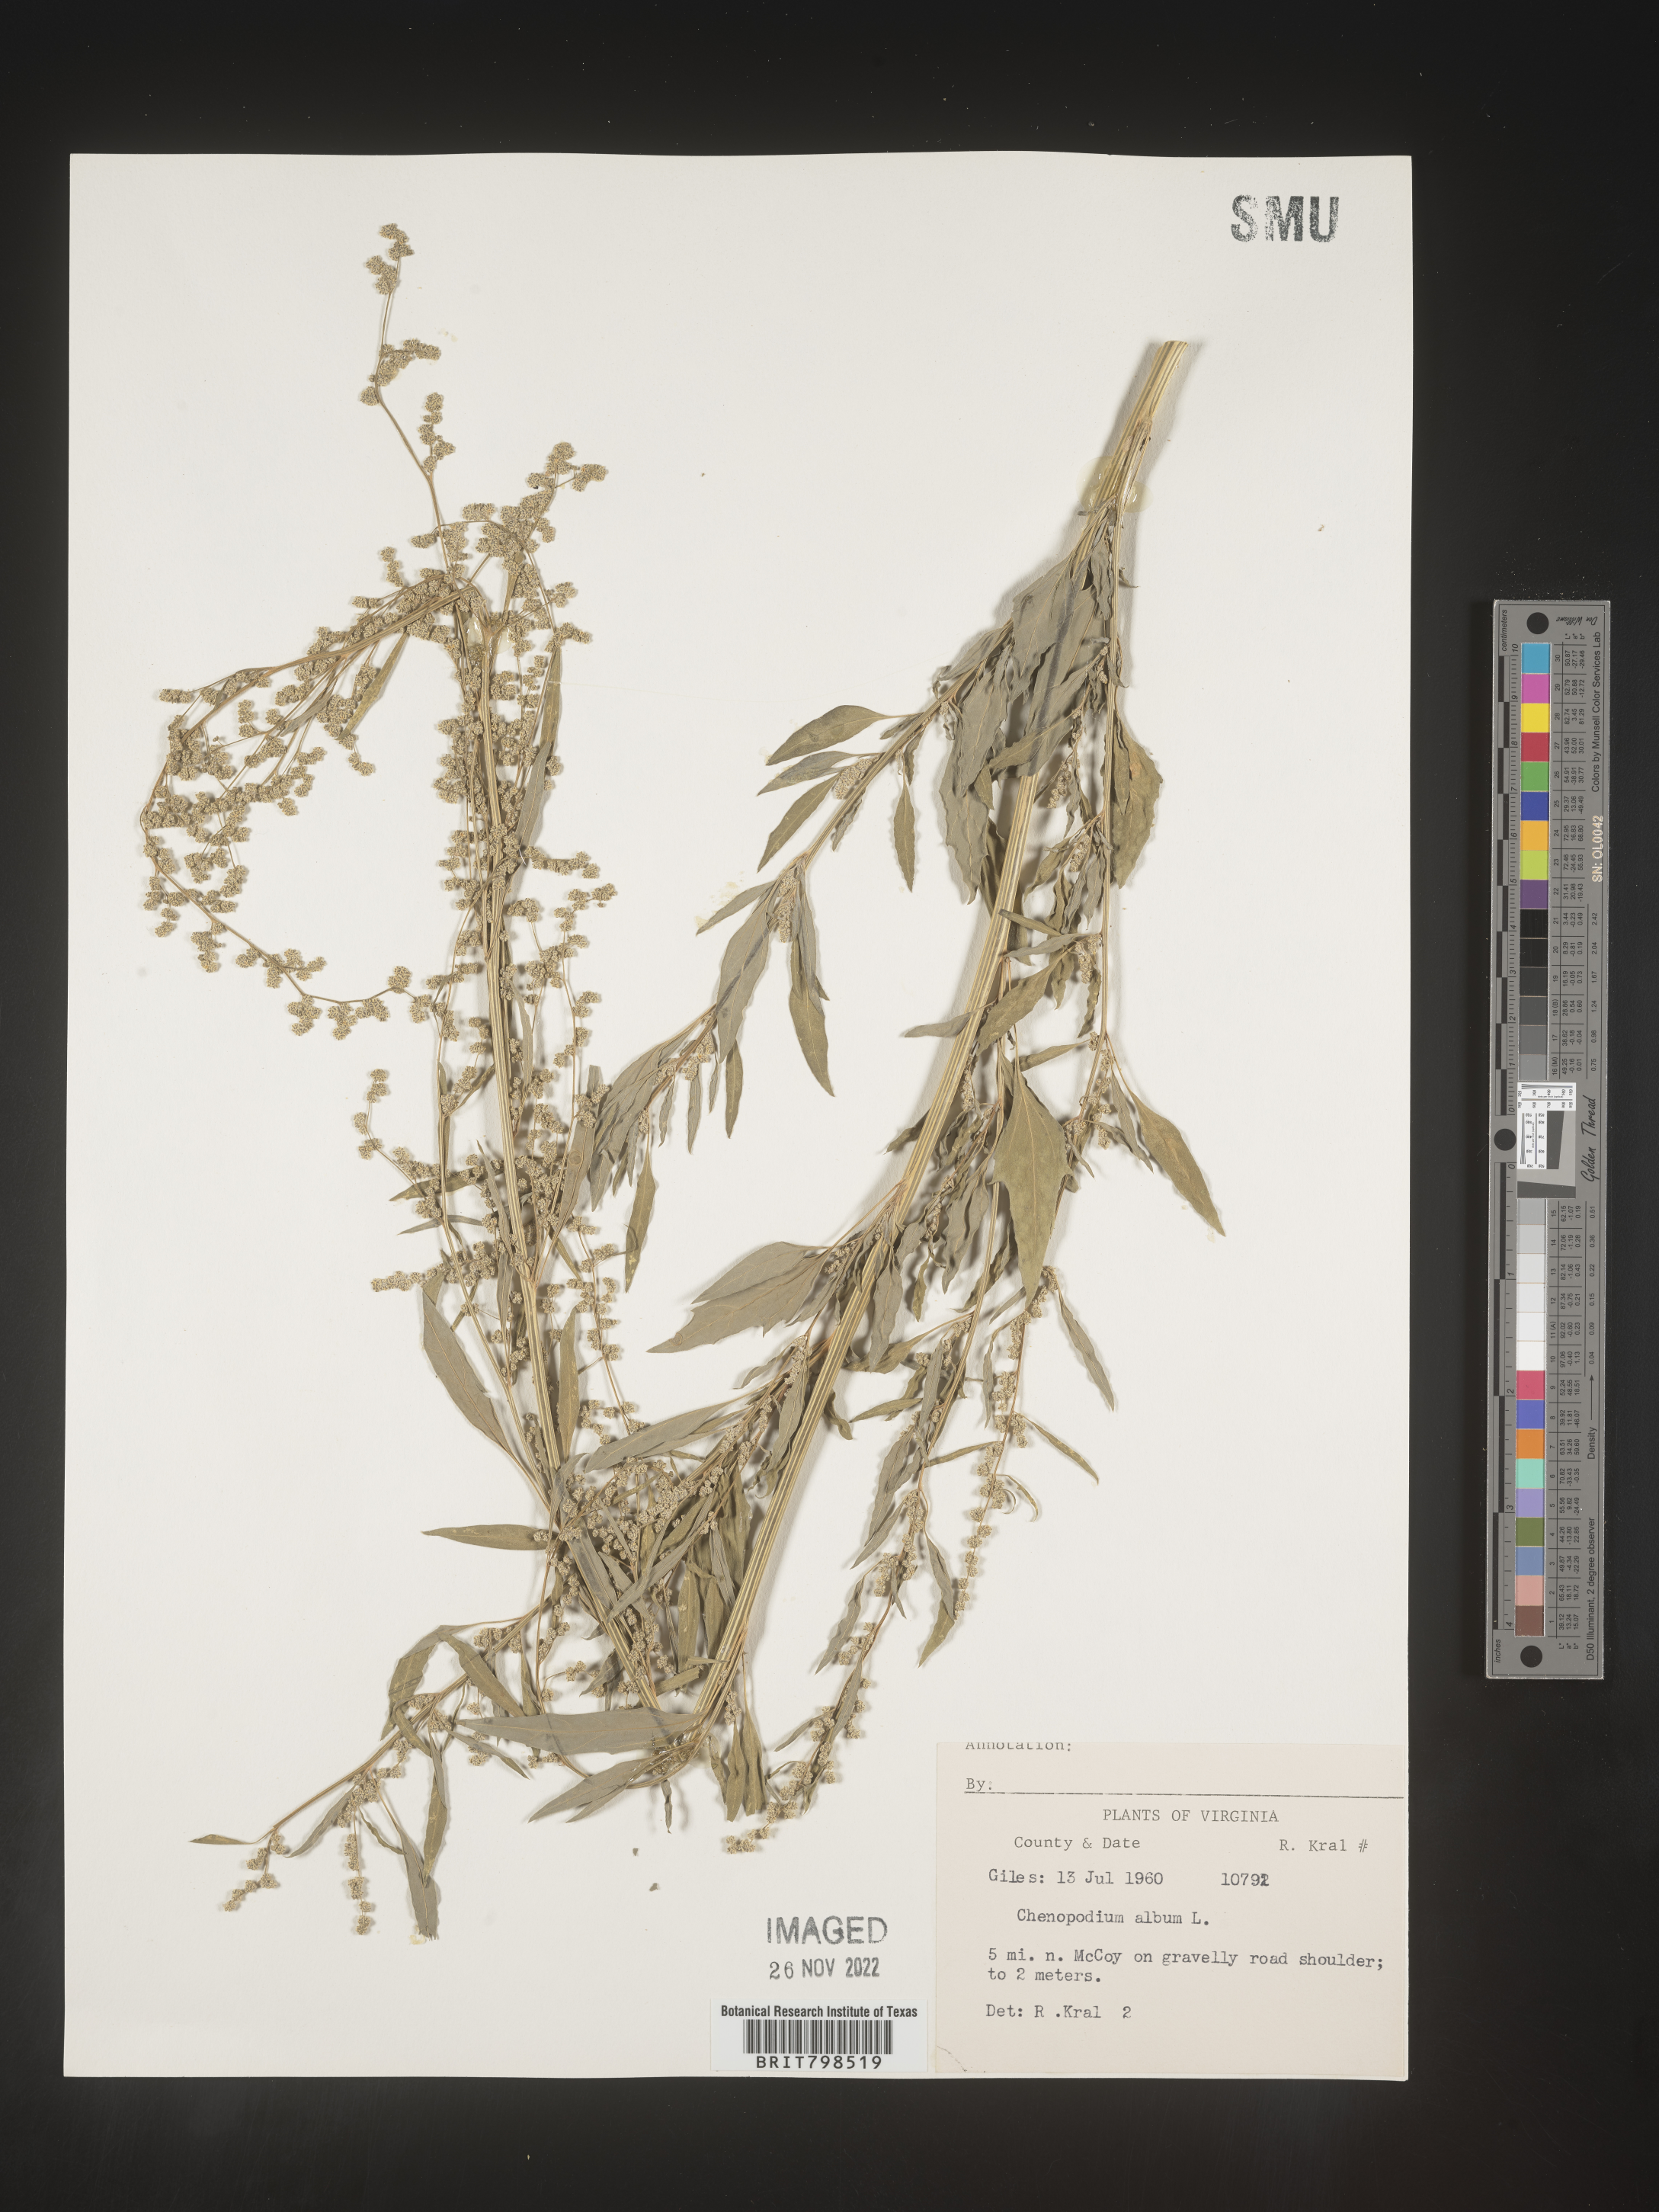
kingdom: Plantae
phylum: Tracheophyta
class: Magnoliopsida
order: Caryophyllales
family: Amaranthaceae
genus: Chenopodium
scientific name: Chenopodium album
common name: Fat-hen
